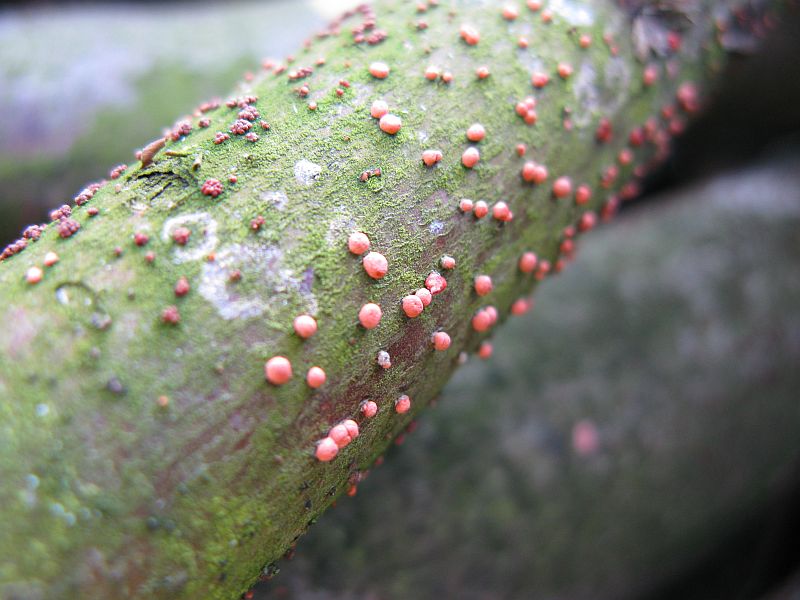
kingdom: Fungi
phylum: Ascomycota
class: Sordariomycetes
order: Hypocreales
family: Nectriaceae
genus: Nectria
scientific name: Nectria cinnabarina
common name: almindelig cinnobersvamp
